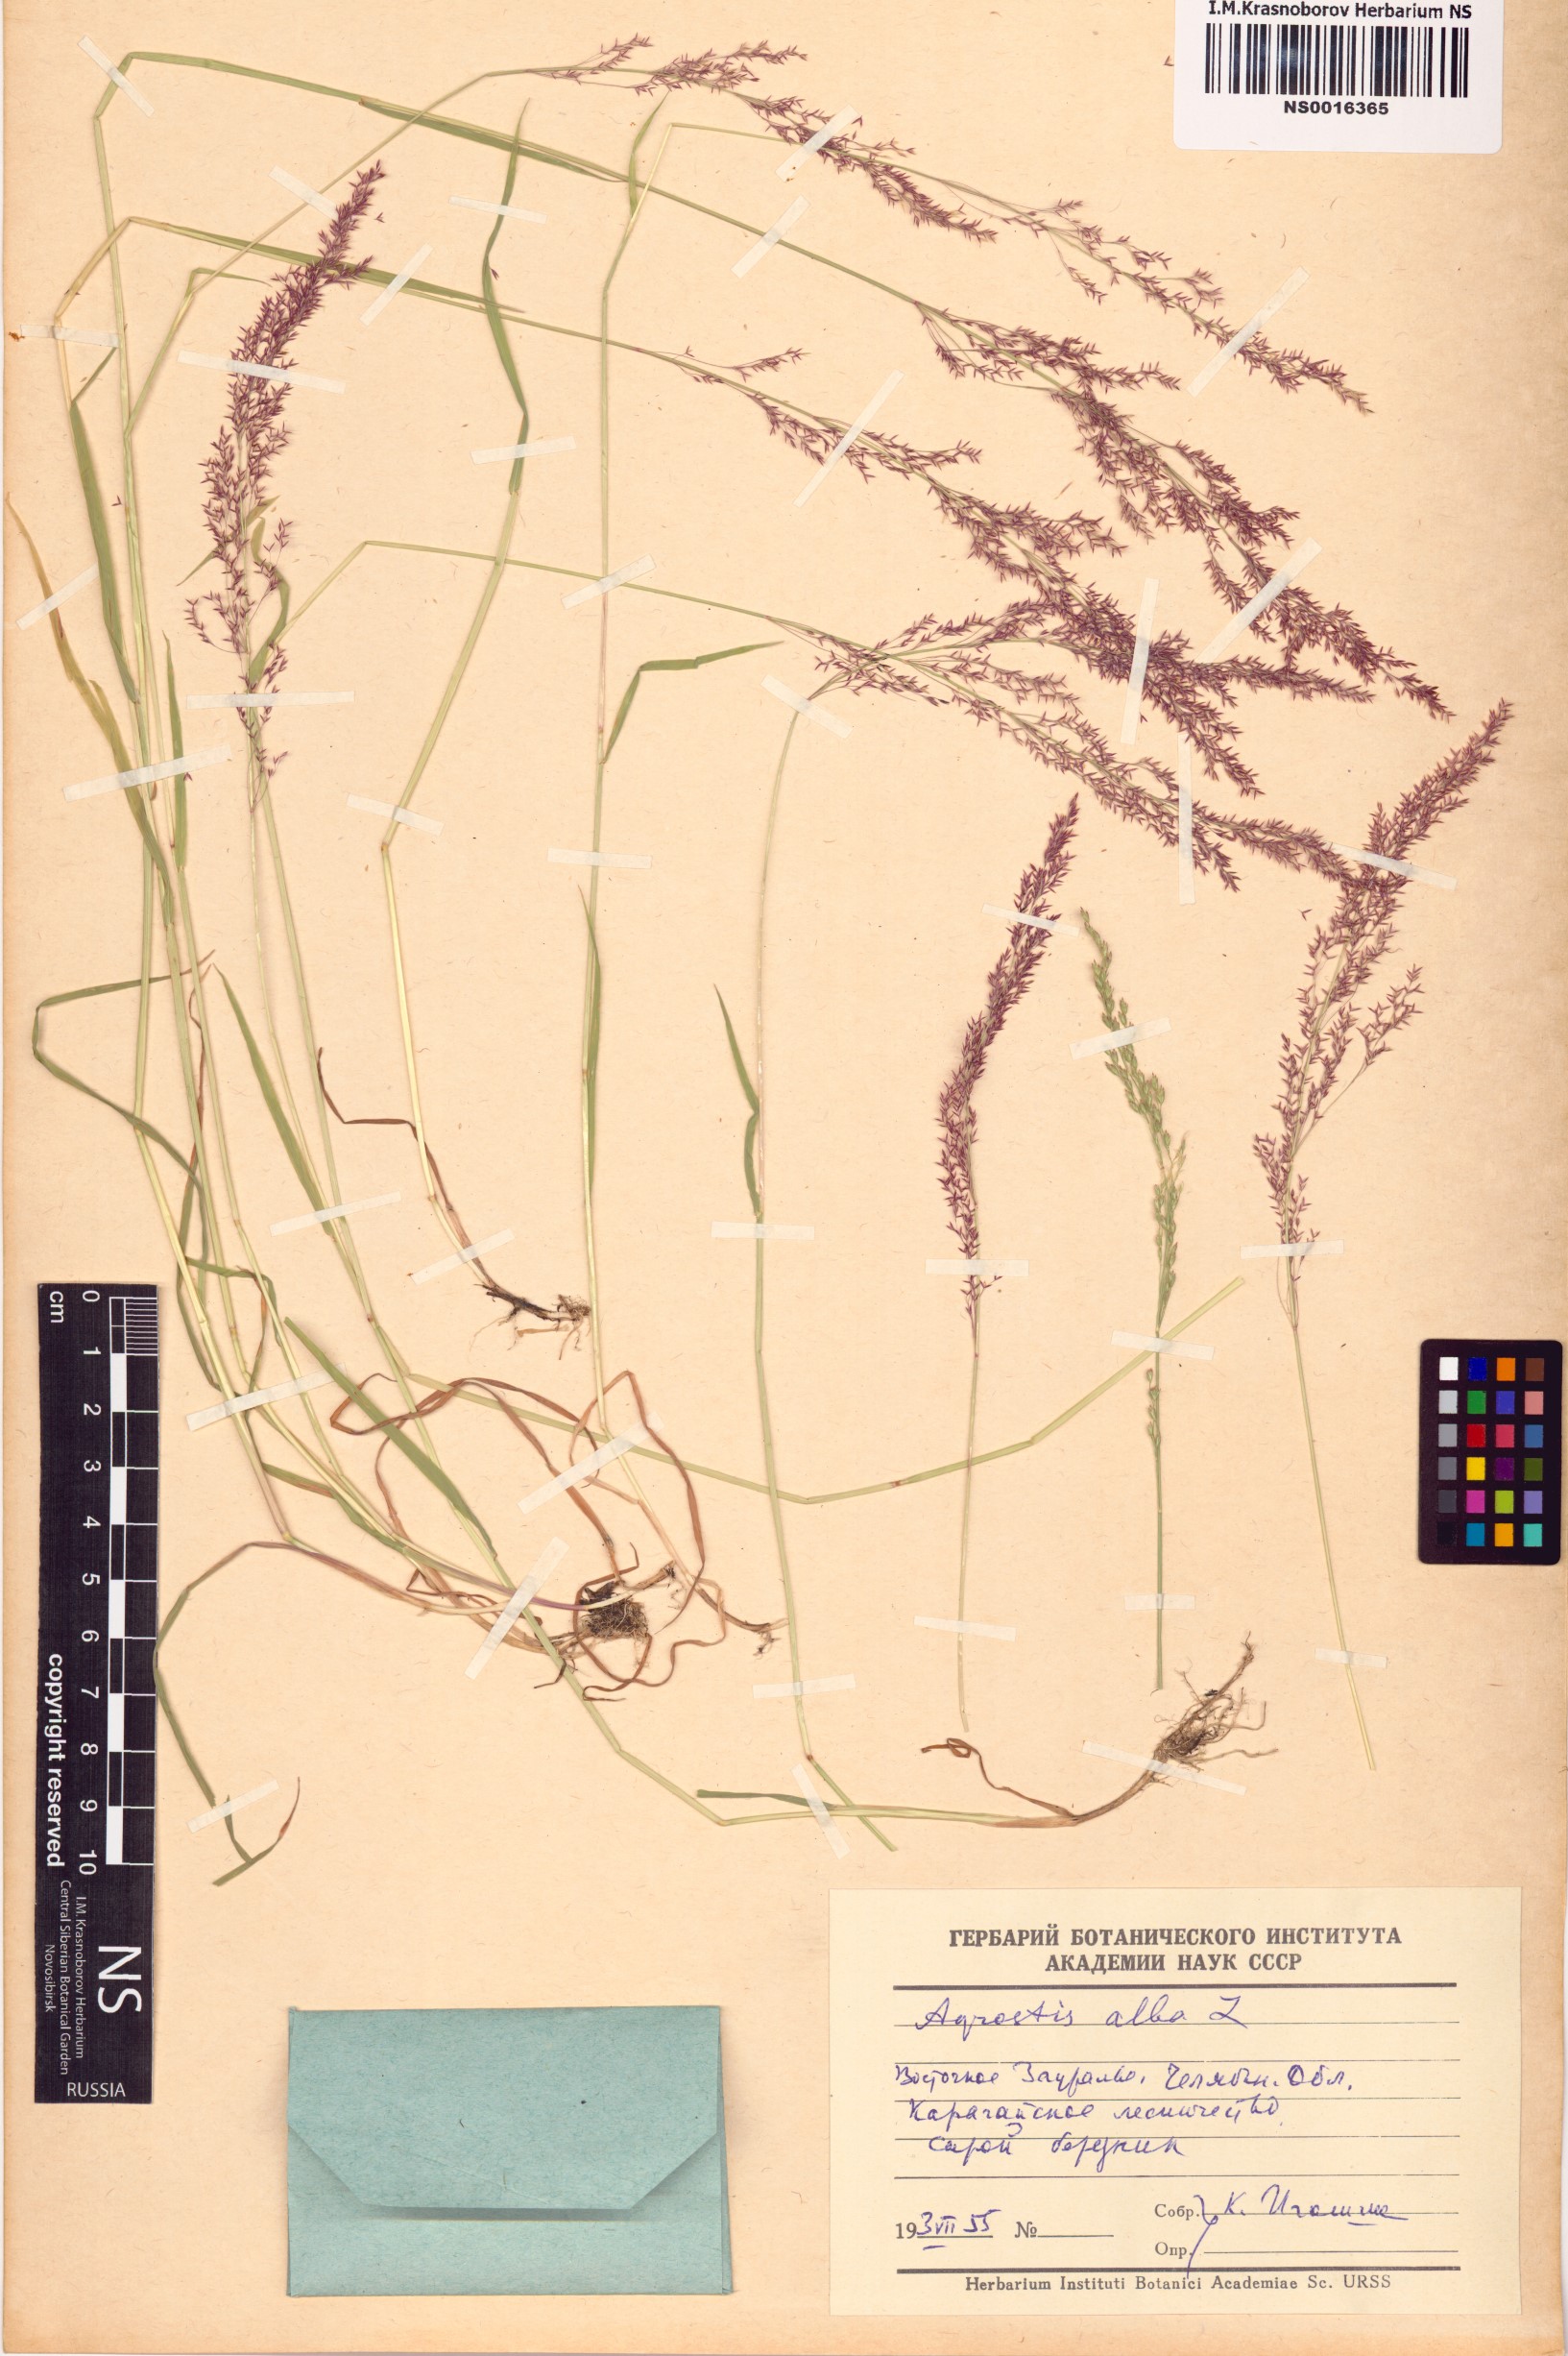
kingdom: Plantae
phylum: Tracheophyta
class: Liliopsida
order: Poales
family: Poaceae
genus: Poa
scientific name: Poa nemoralis
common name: Wood bluegrass
